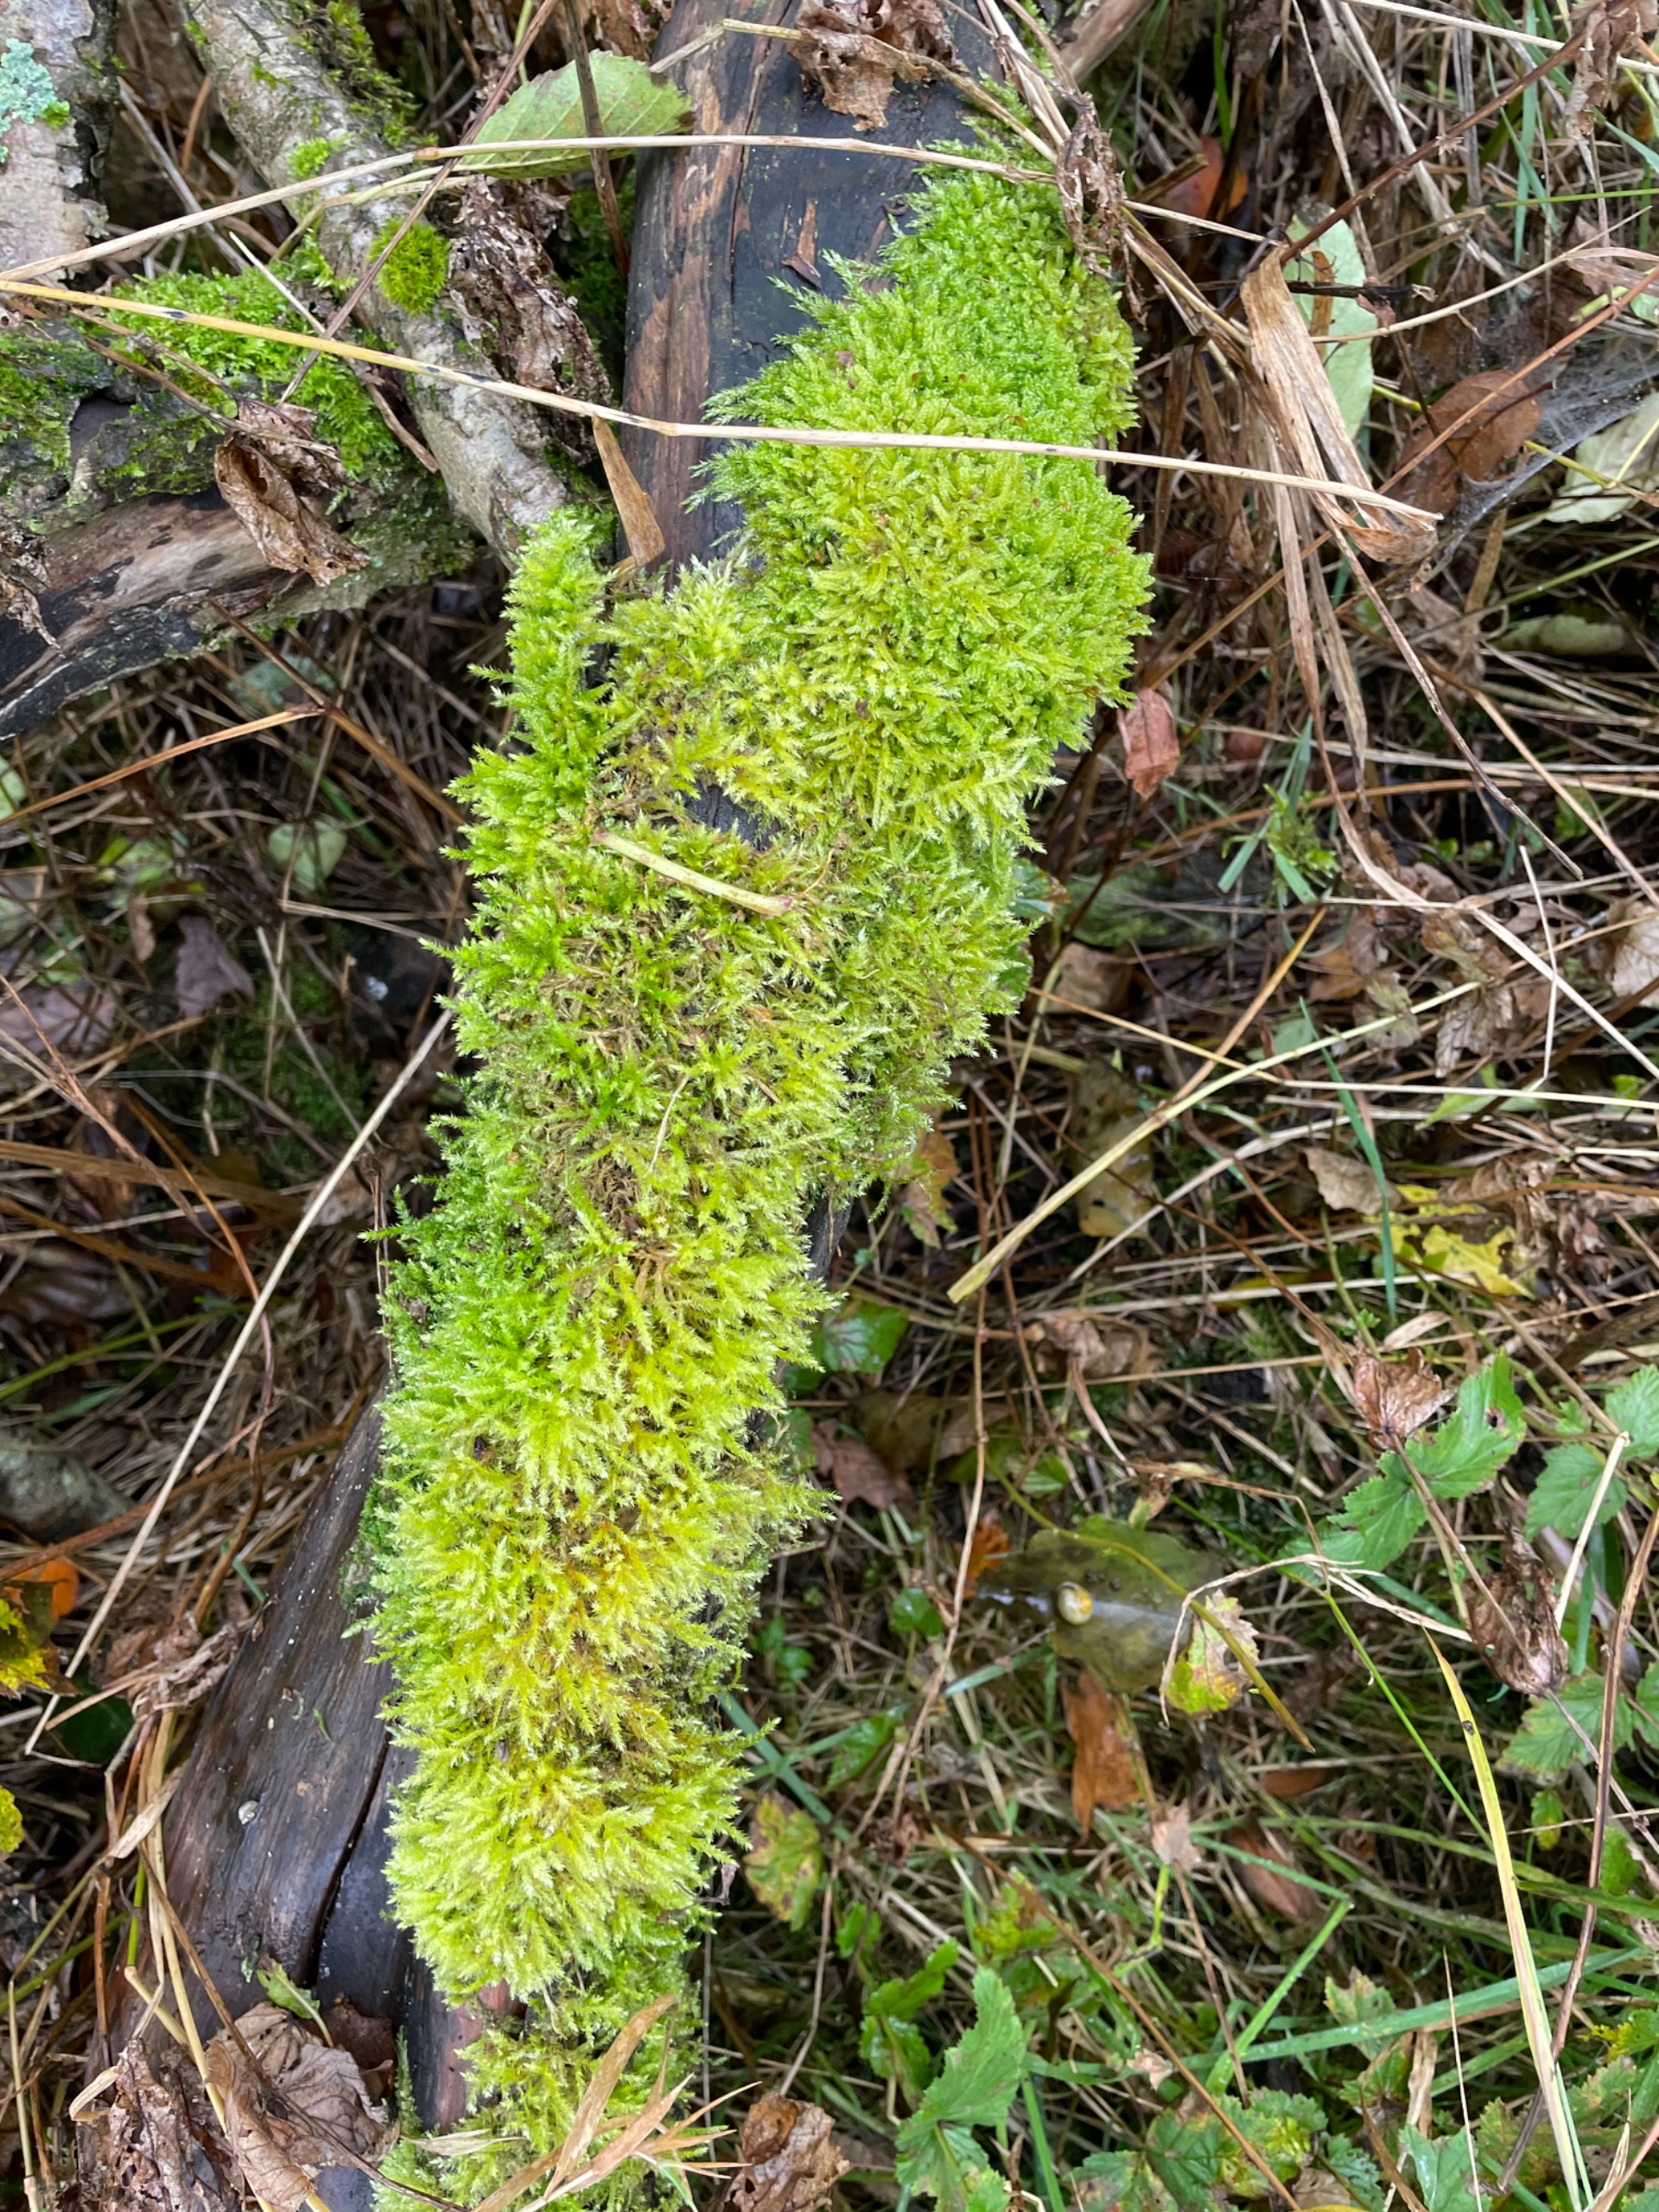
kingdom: Plantae
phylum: Bryophyta
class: Bryopsida
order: Hypnales
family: Brachytheciaceae
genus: Brachythecium
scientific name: Brachythecium
